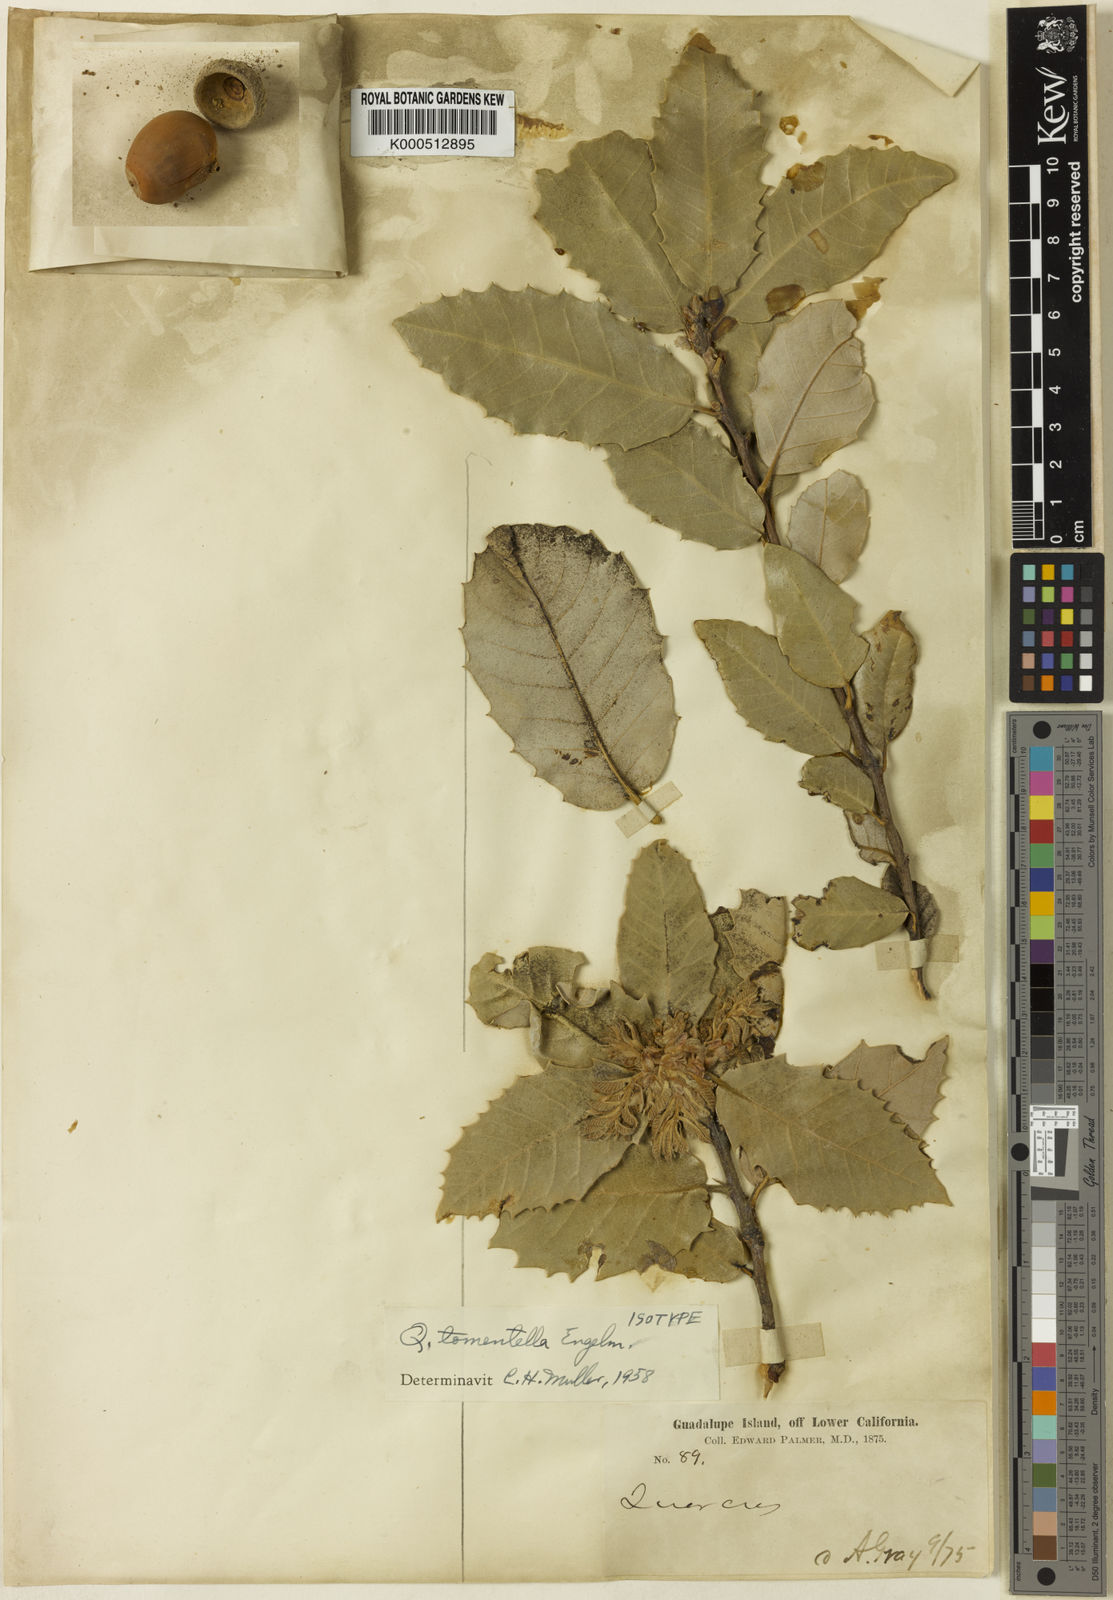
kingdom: Plantae
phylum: Tracheophyta
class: Magnoliopsida
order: Fagales
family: Fagaceae
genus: Quercus
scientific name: Quercus tomentella
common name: Island oak
